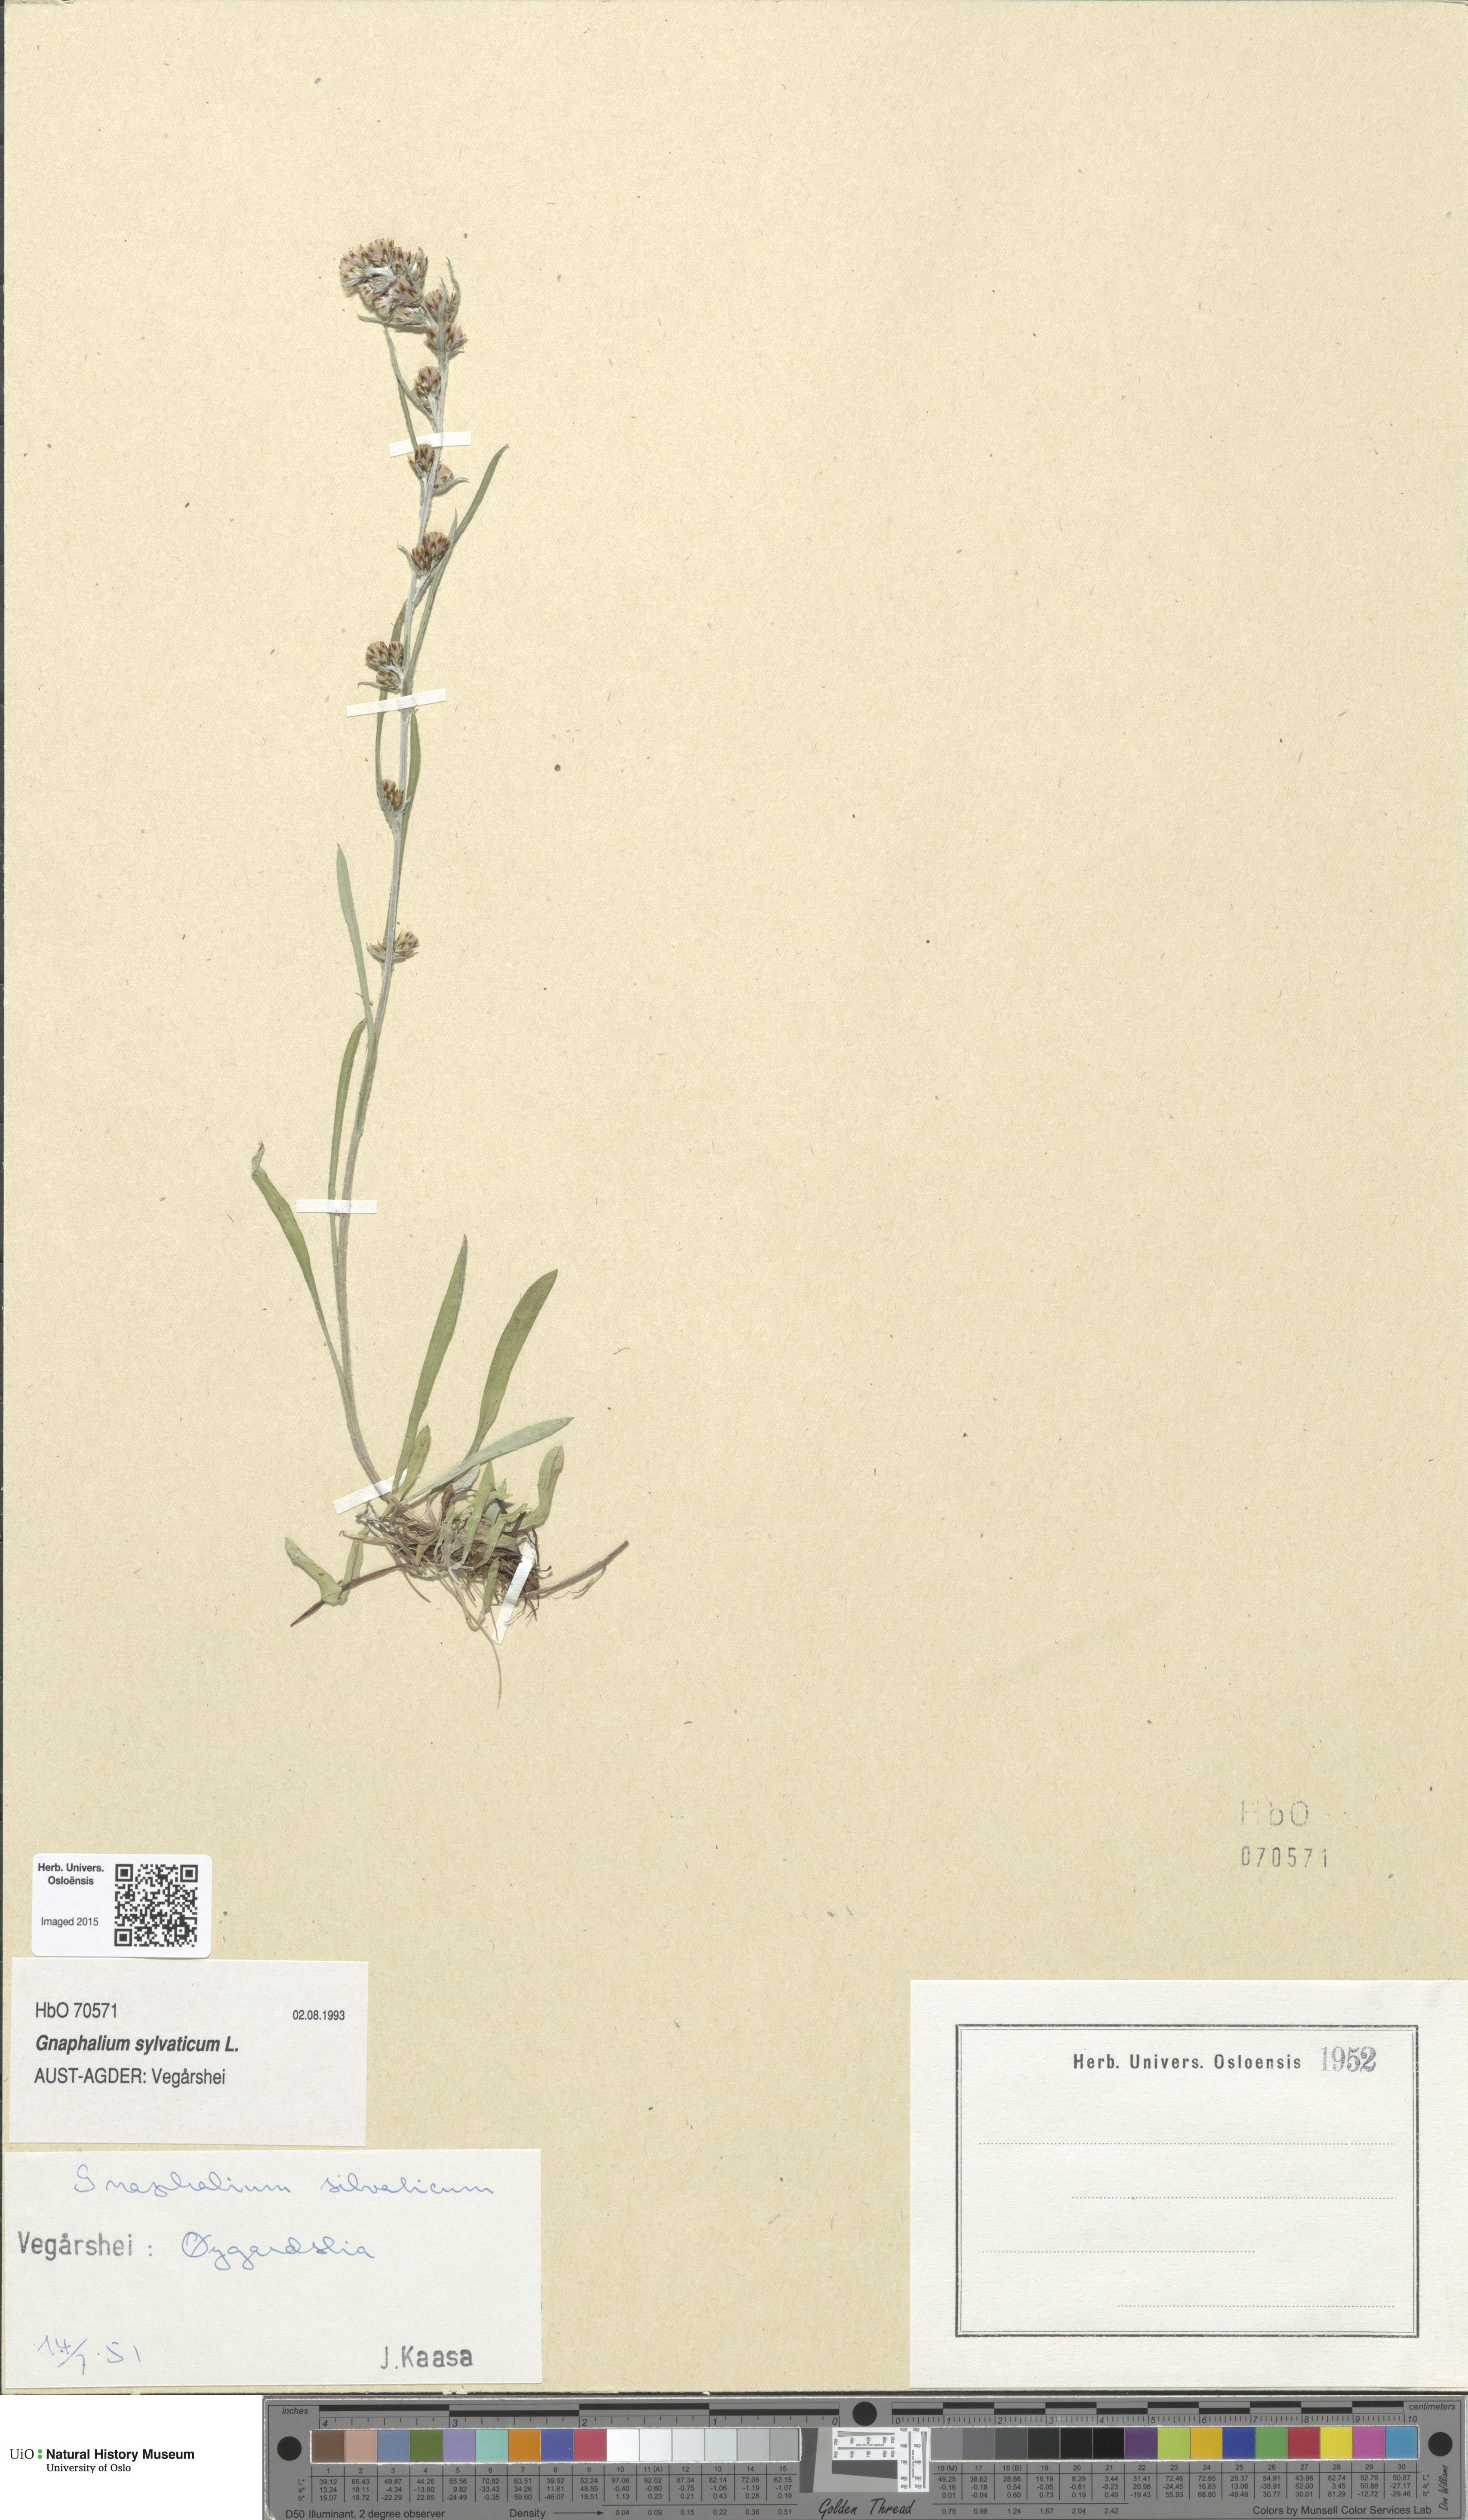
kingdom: Plantae
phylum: Tracheophyta
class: Magnoliopsida
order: Asterales
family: Asteraceae
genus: Omalotheca
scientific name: Omalotheca sylvatica
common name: Heath cudweed
